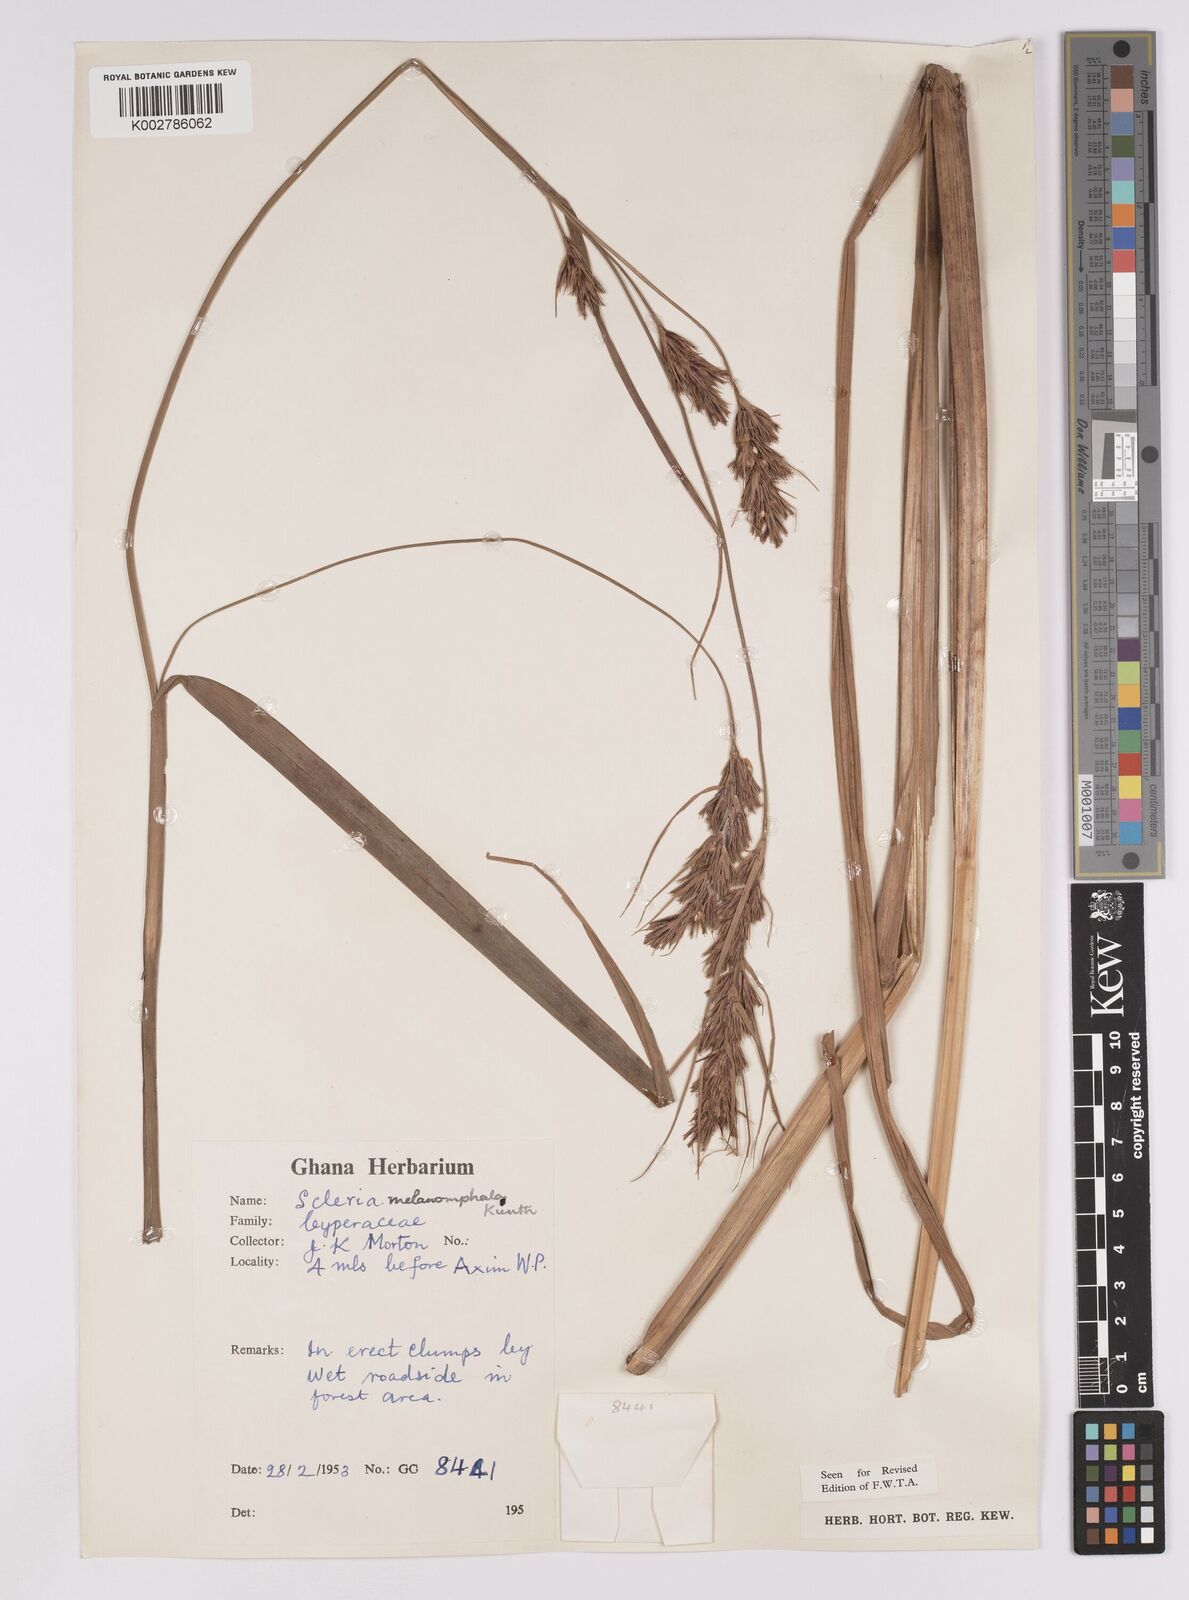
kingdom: Plantae
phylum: Tracheophyta
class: Liliopsida
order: Poales
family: Cyperaceae
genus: Scleria
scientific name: Scleria melanomphala
